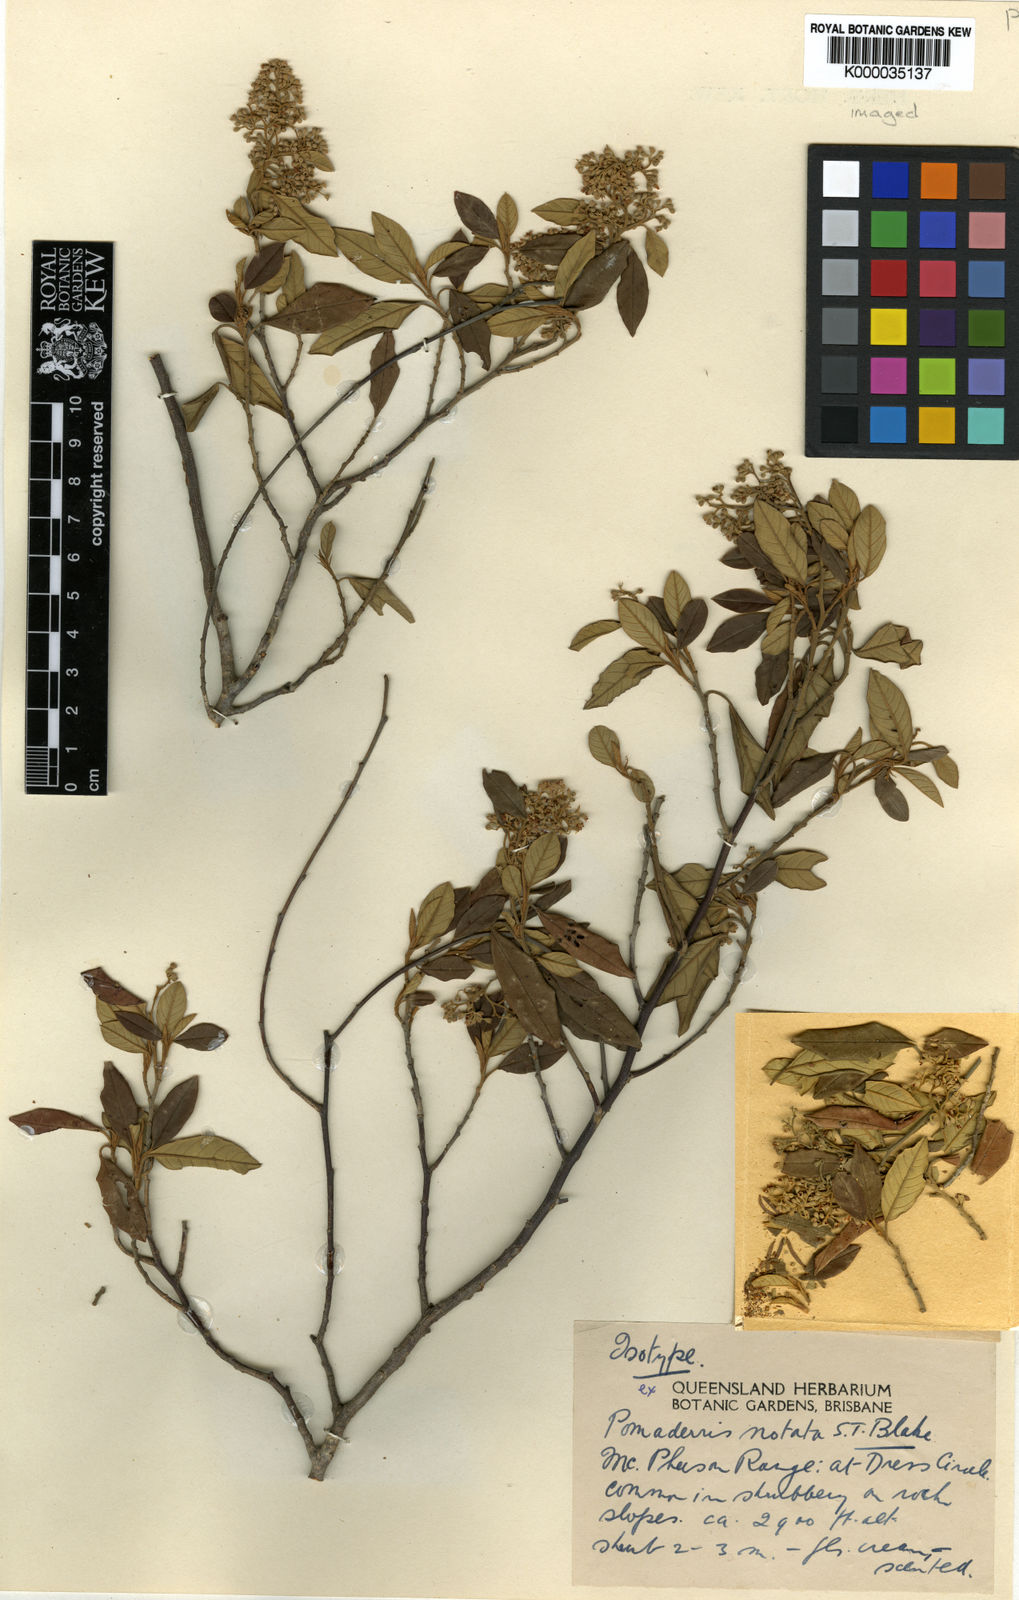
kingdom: Plantae
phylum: Tracheophyta
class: Magnoliopsida
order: Rosales
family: Rhamnaceae
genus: Pomaderris
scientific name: Pomaderris
